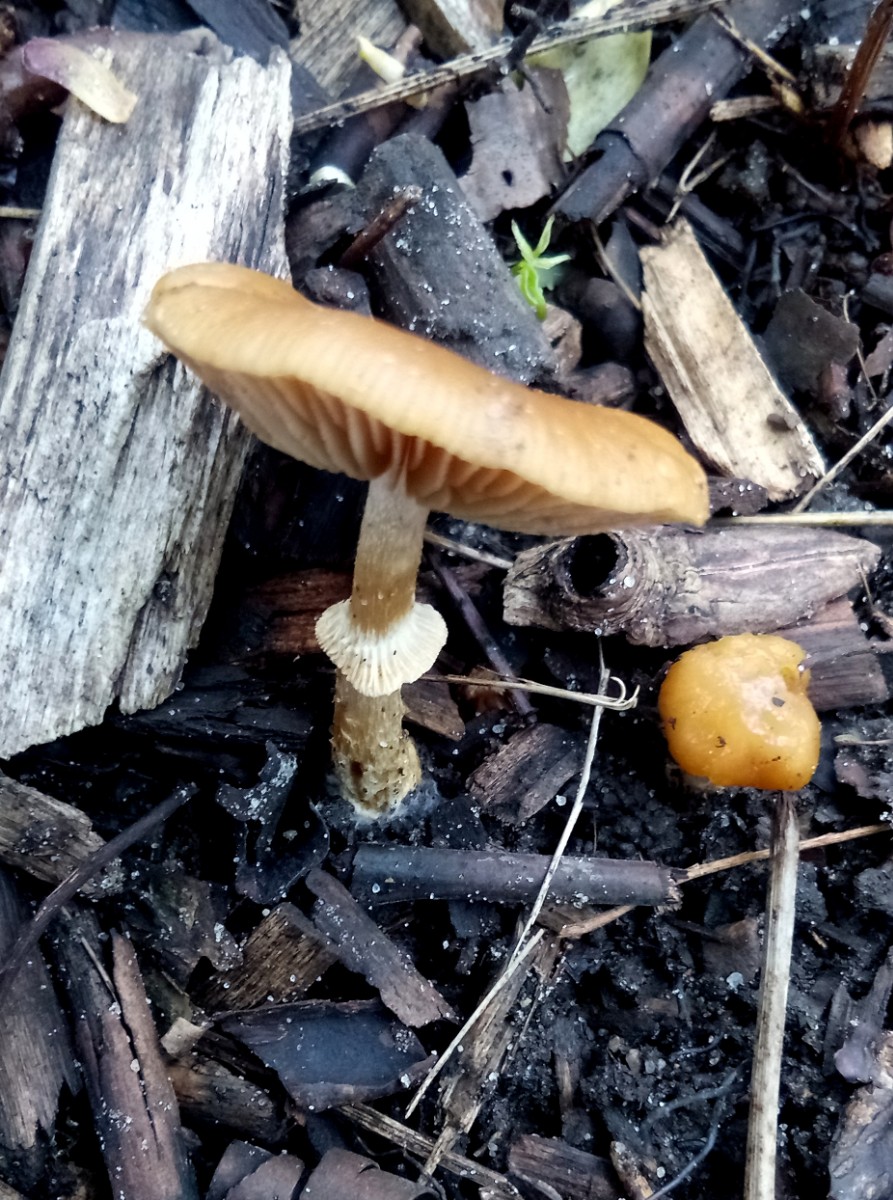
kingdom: Fungi
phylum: Basidiomycota
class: Agaricomycetes
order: Agaricales
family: Bolbitiaceae
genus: Conocybe
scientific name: Conocybe aporos
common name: tidlig dansehat
